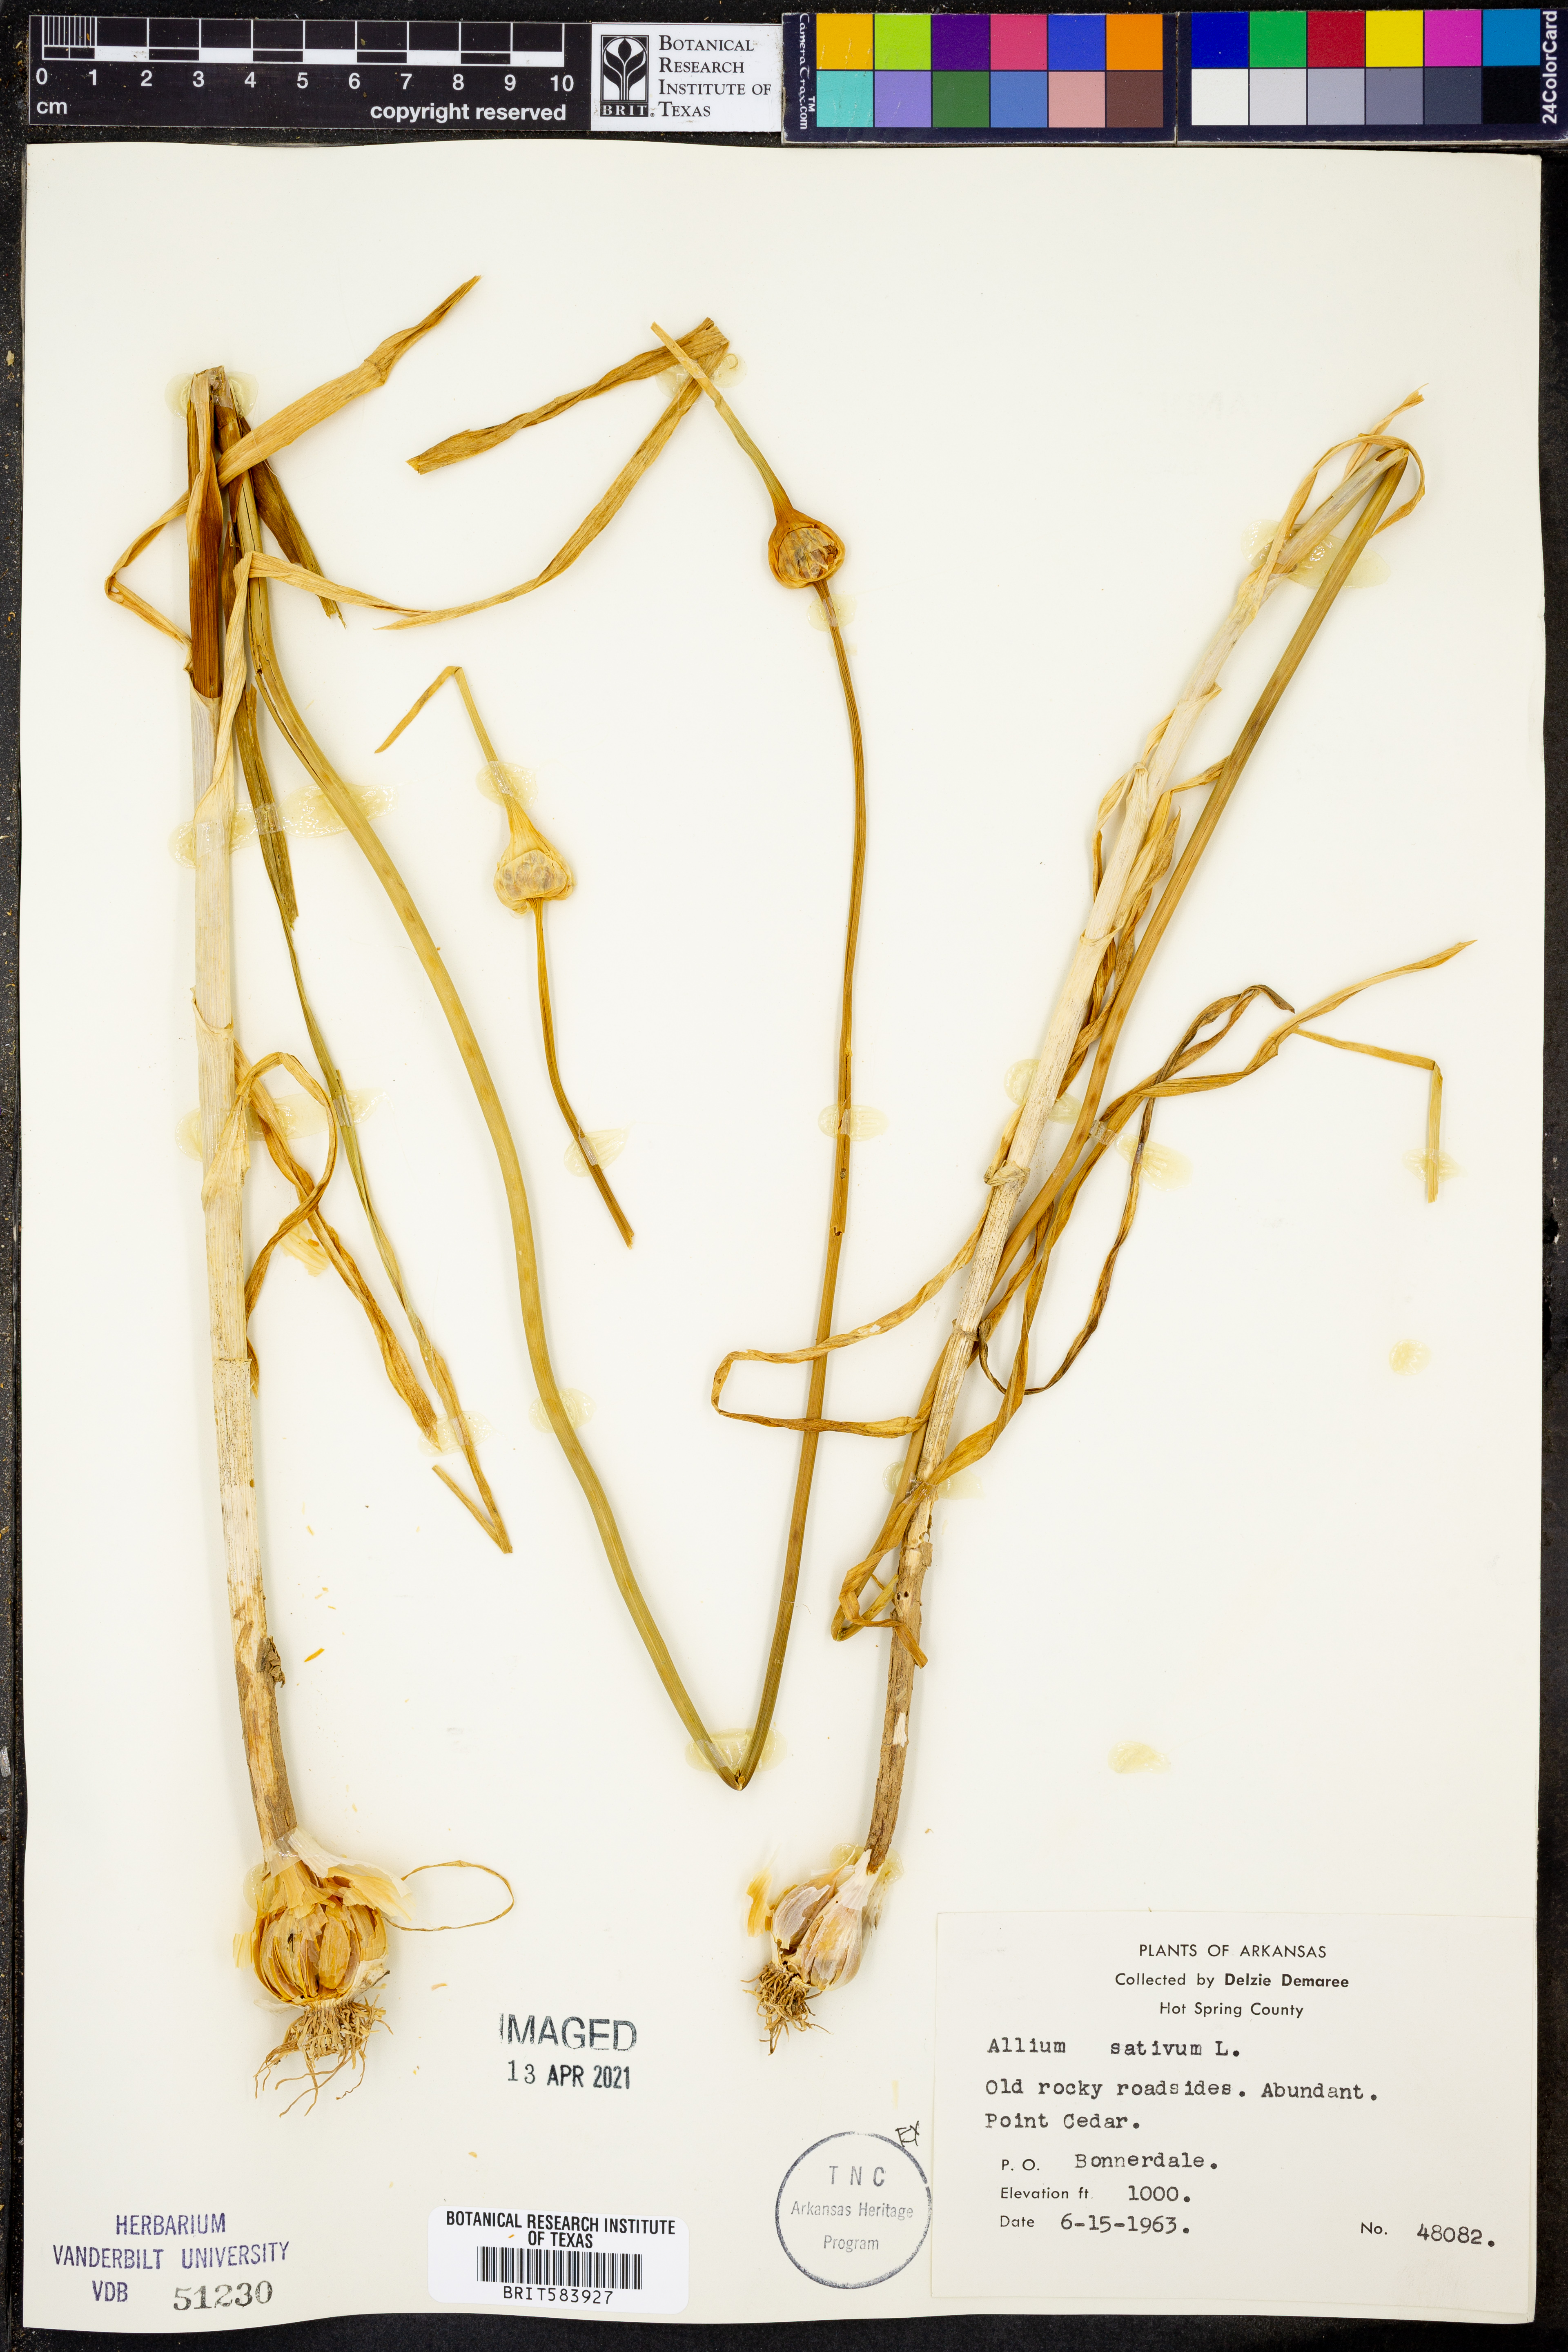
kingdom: Plantae
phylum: Tracheophyta
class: Liliopsida
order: Asparagales
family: Amaryllidaceae
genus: Allium
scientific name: Allium sativum
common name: Garlic
